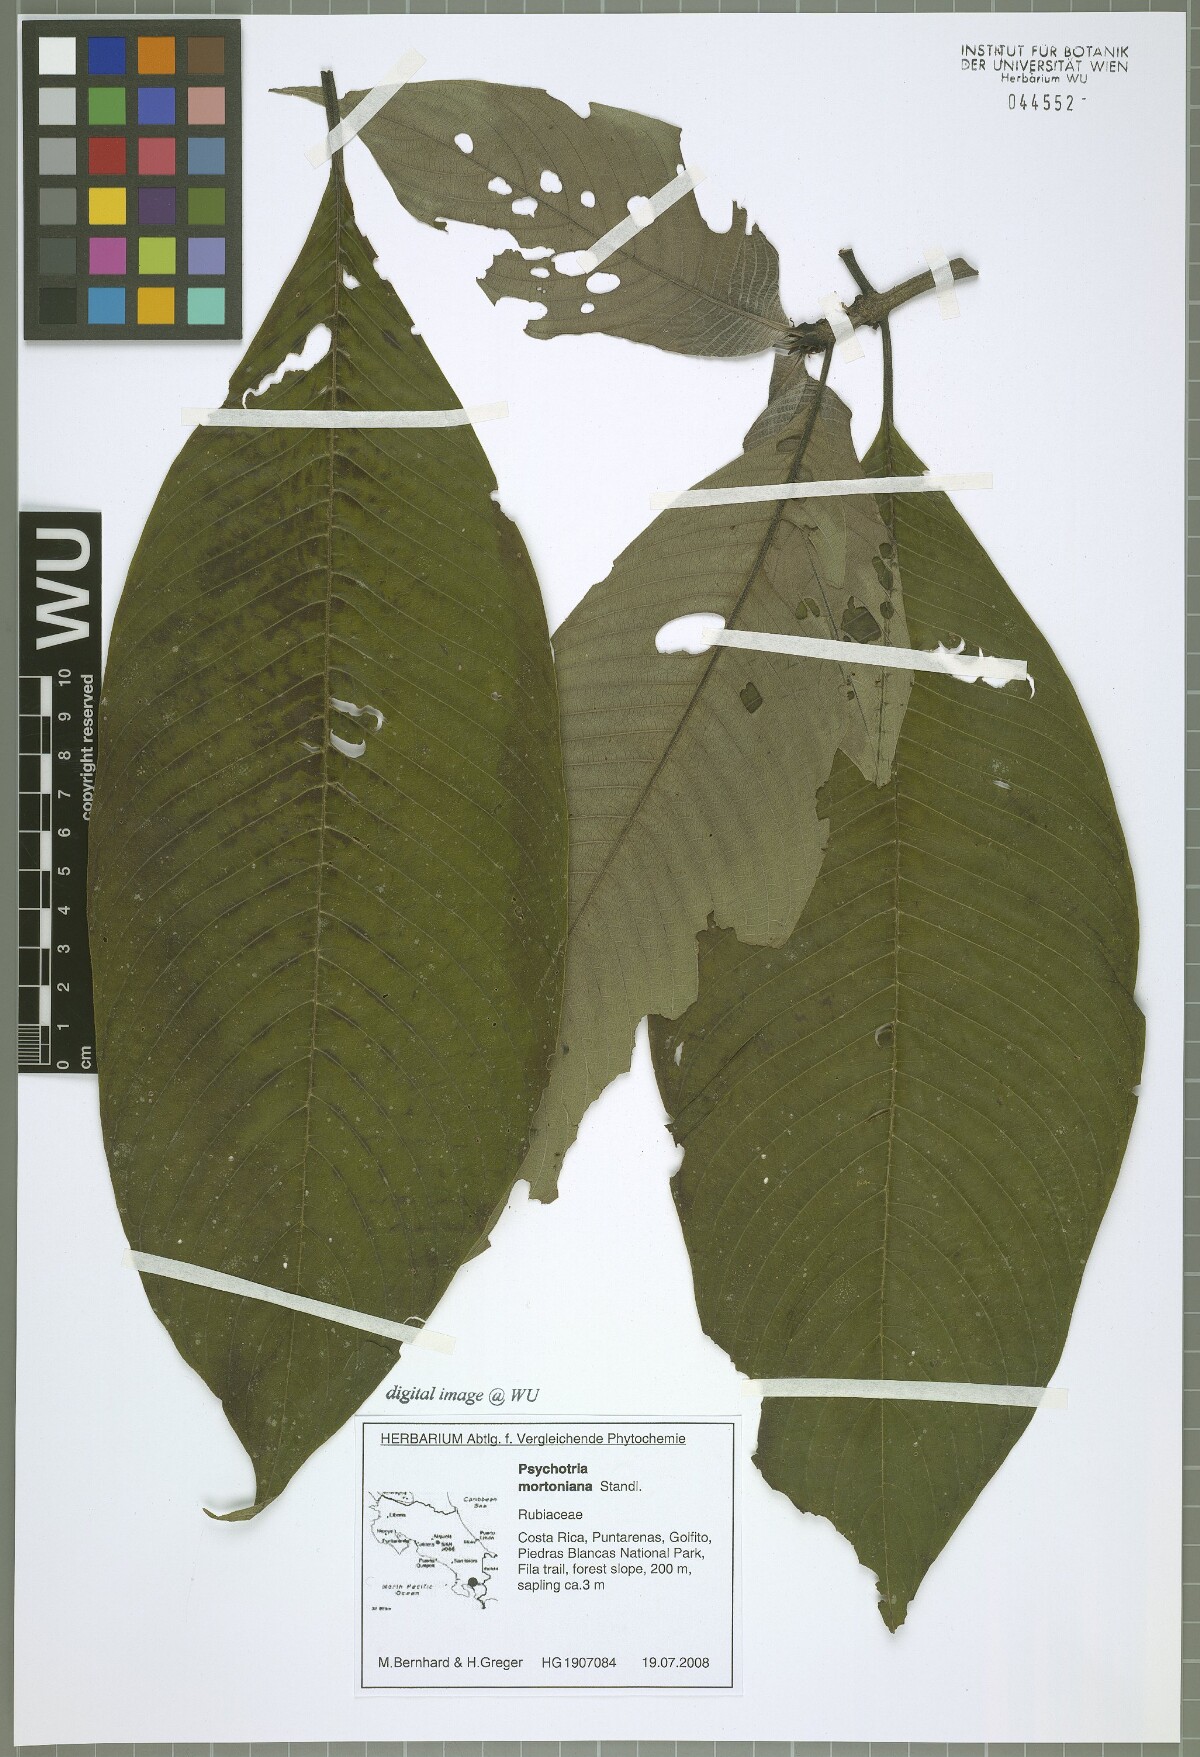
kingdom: Plantae
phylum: Tracheophyta
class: Magnoliopsida
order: Gentianales
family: Rubiaceae
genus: Palicourea
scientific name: Palicourea mortoniana
